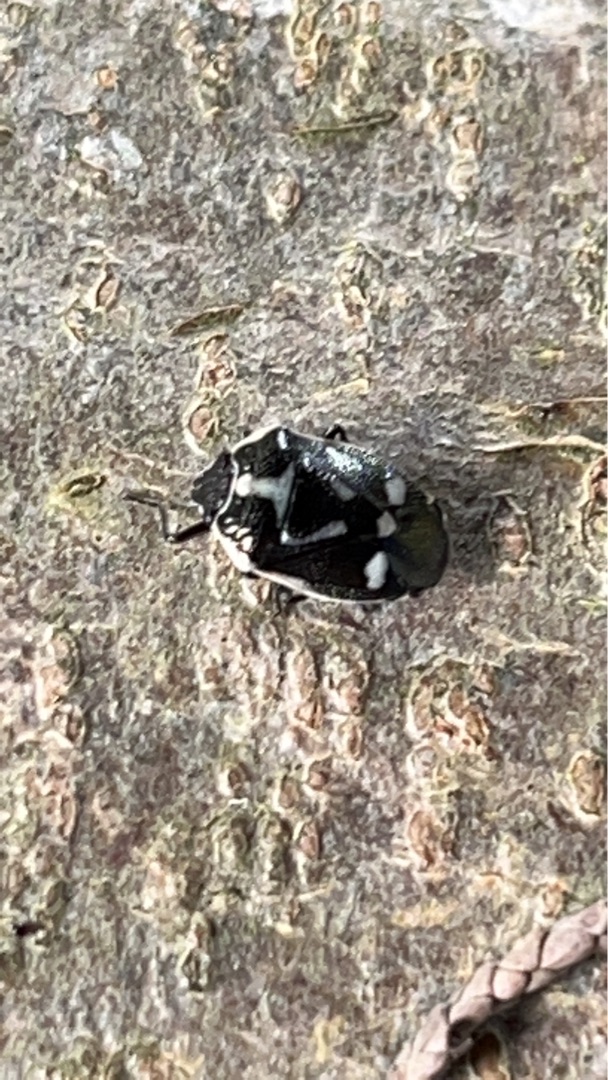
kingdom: Animalia
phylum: Arthropoda
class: Insecta
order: Hemiptera
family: Pentatomidae
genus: Eurydema
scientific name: Eurydema oleracea
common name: Almindelig kåltæge
